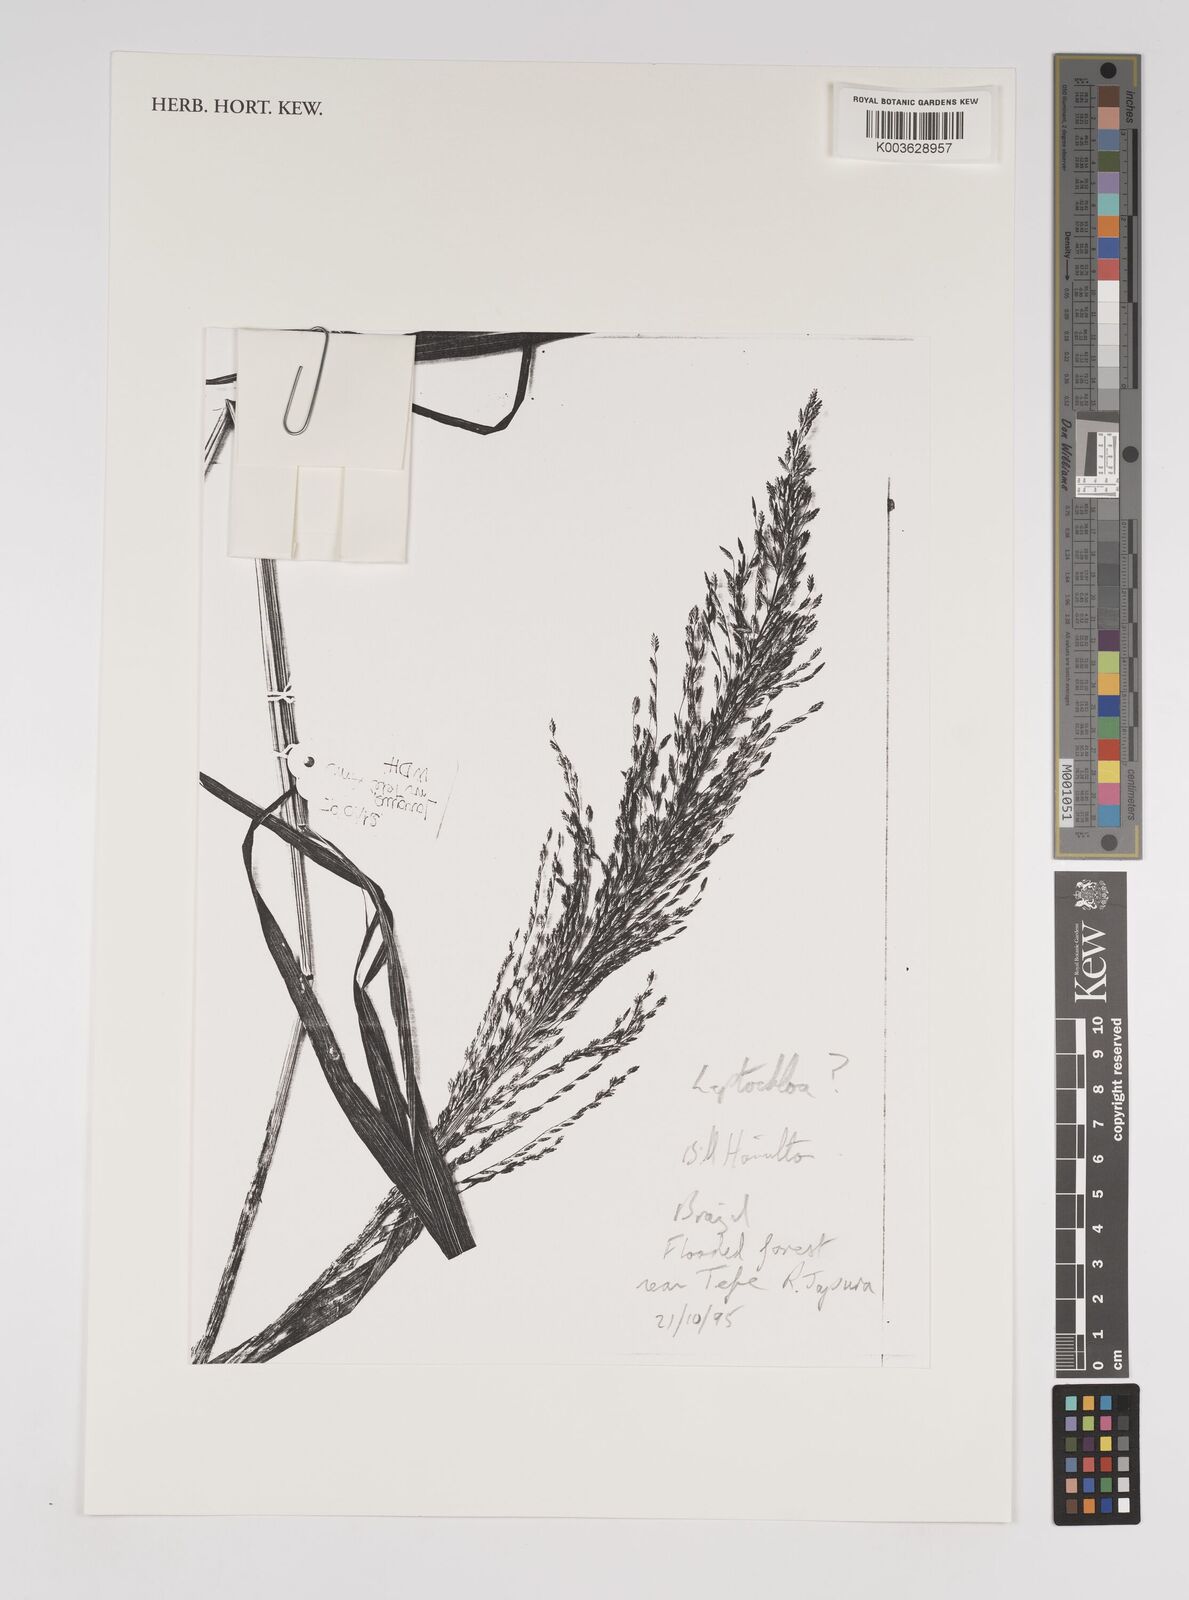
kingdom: Plantae
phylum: Tracheophyta
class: Liliopsida
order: Poales
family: Poaceae
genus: Leptochloa
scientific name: Leptochloa
